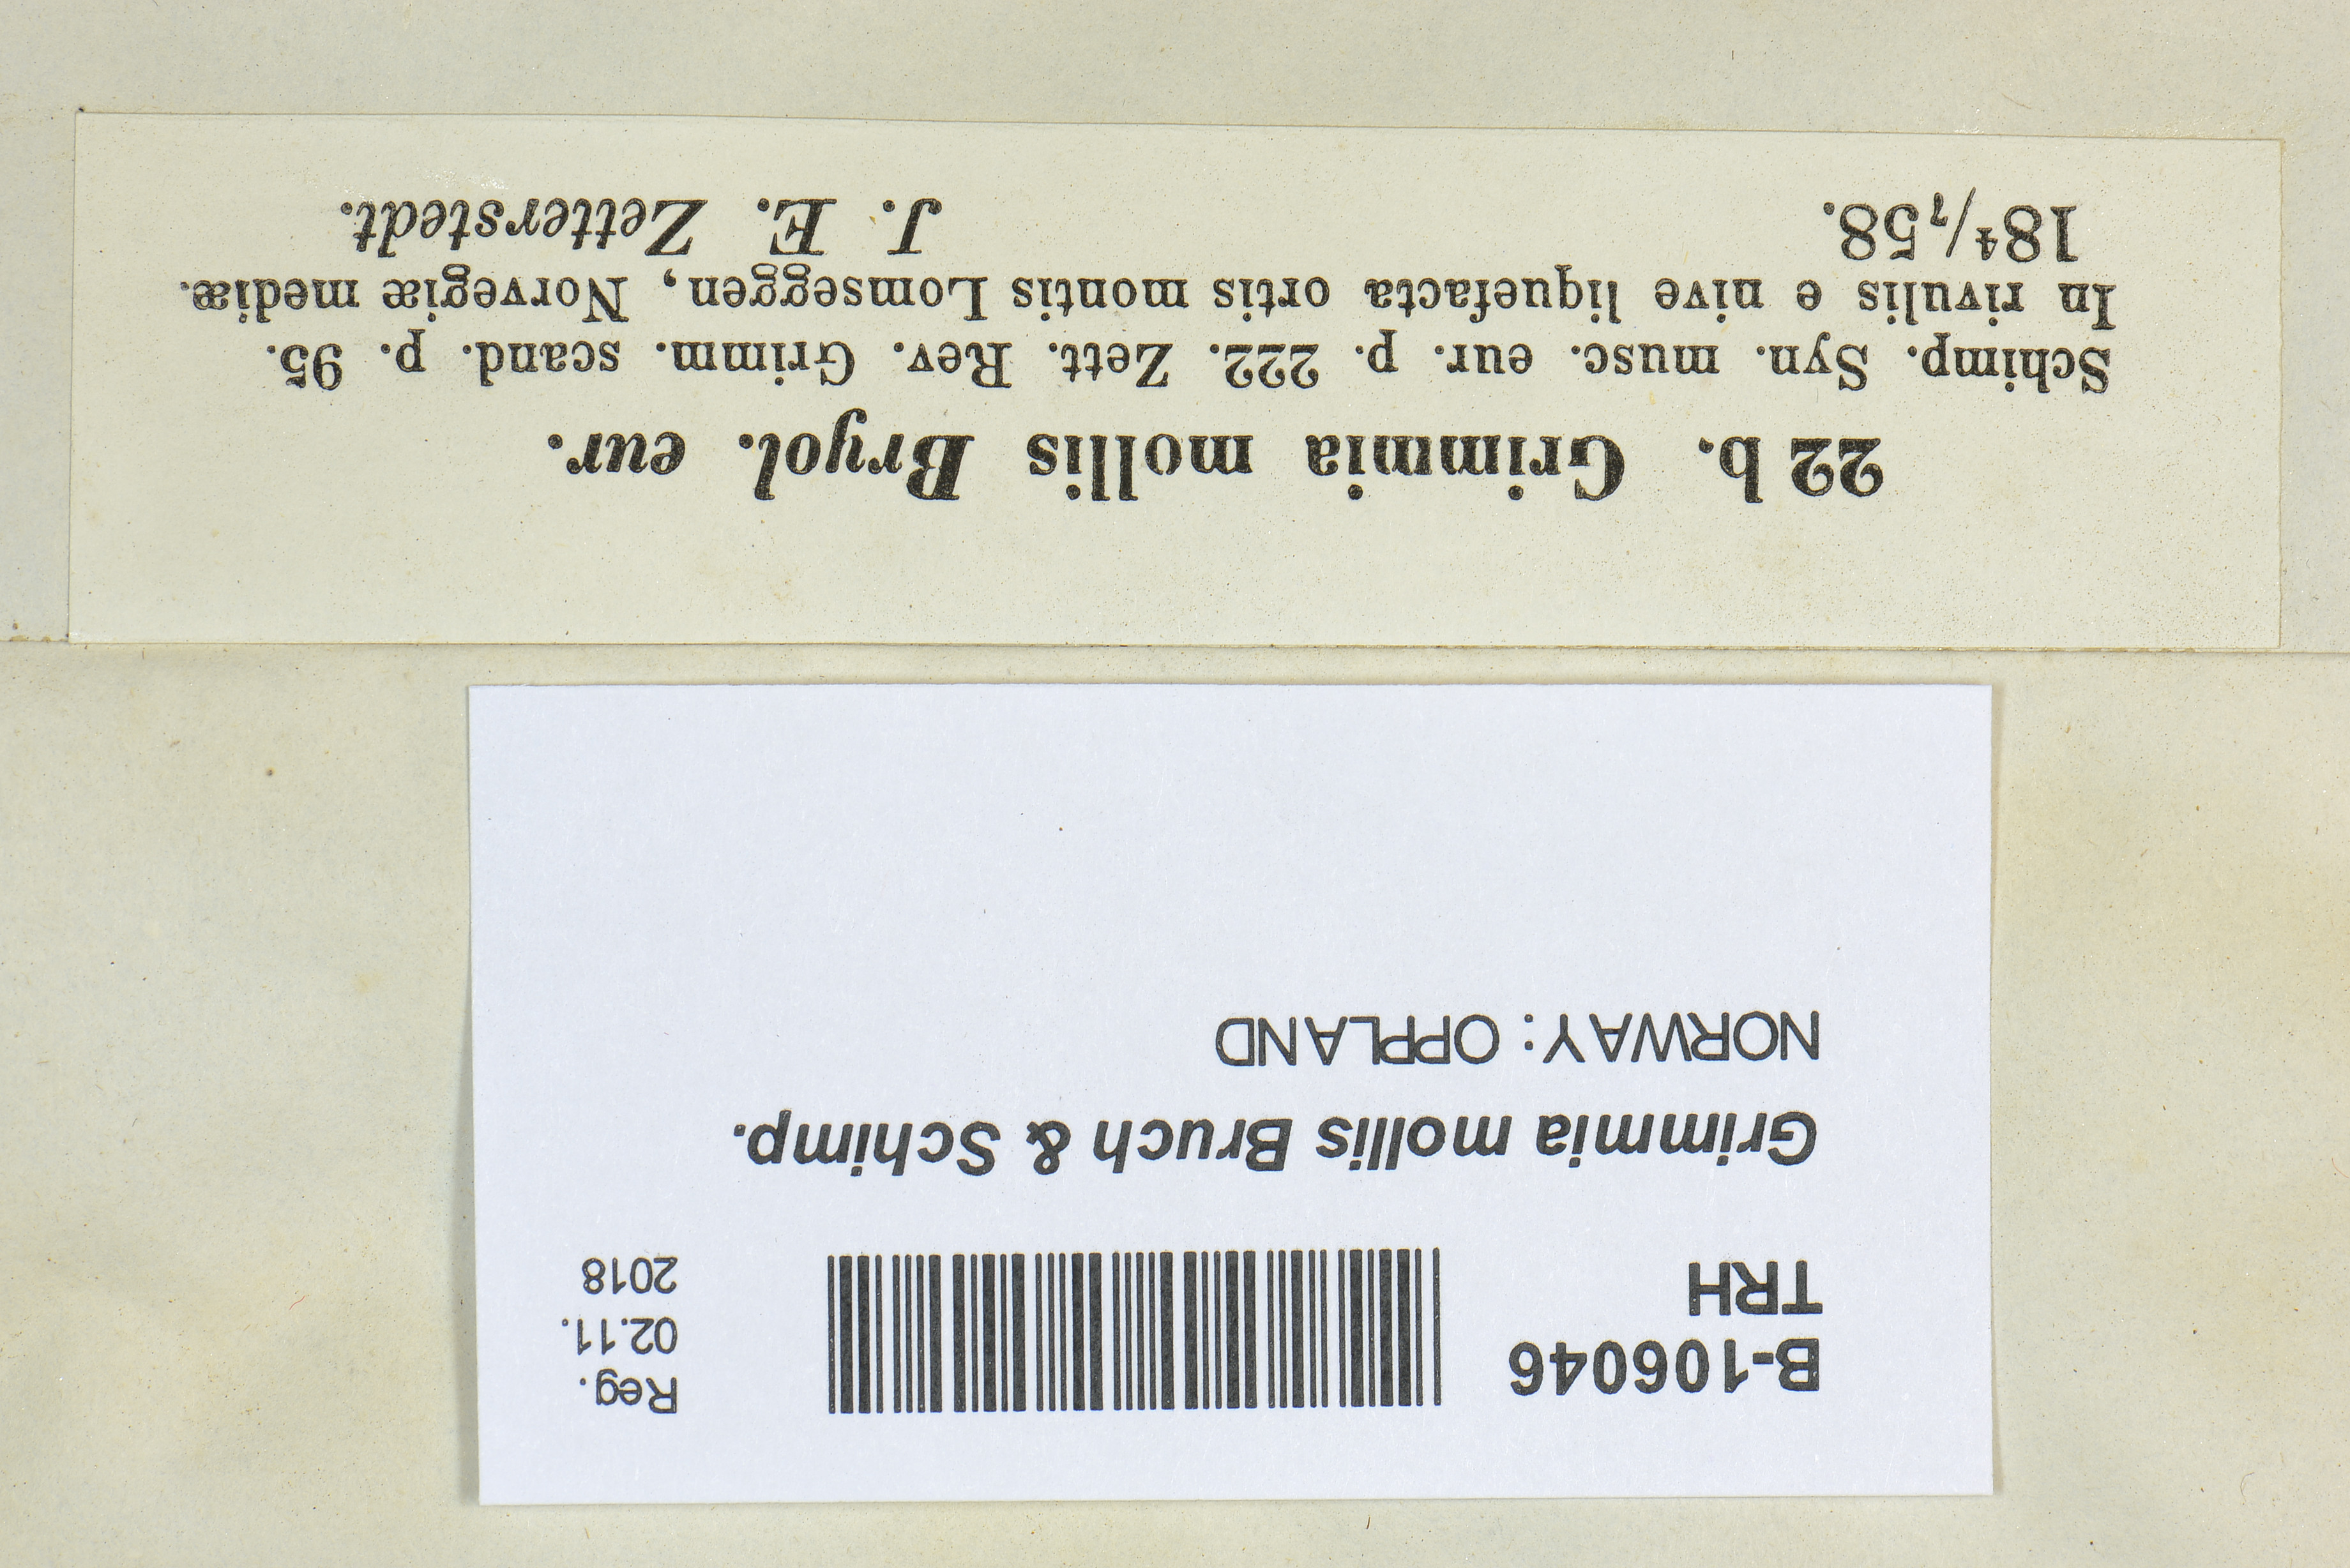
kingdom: Plantae
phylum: Bryophyta
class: Bryopsida
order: Grimmiales
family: Grimmiaceae
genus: Grimmia
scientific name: Grimmia mollis
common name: Water grimmia
